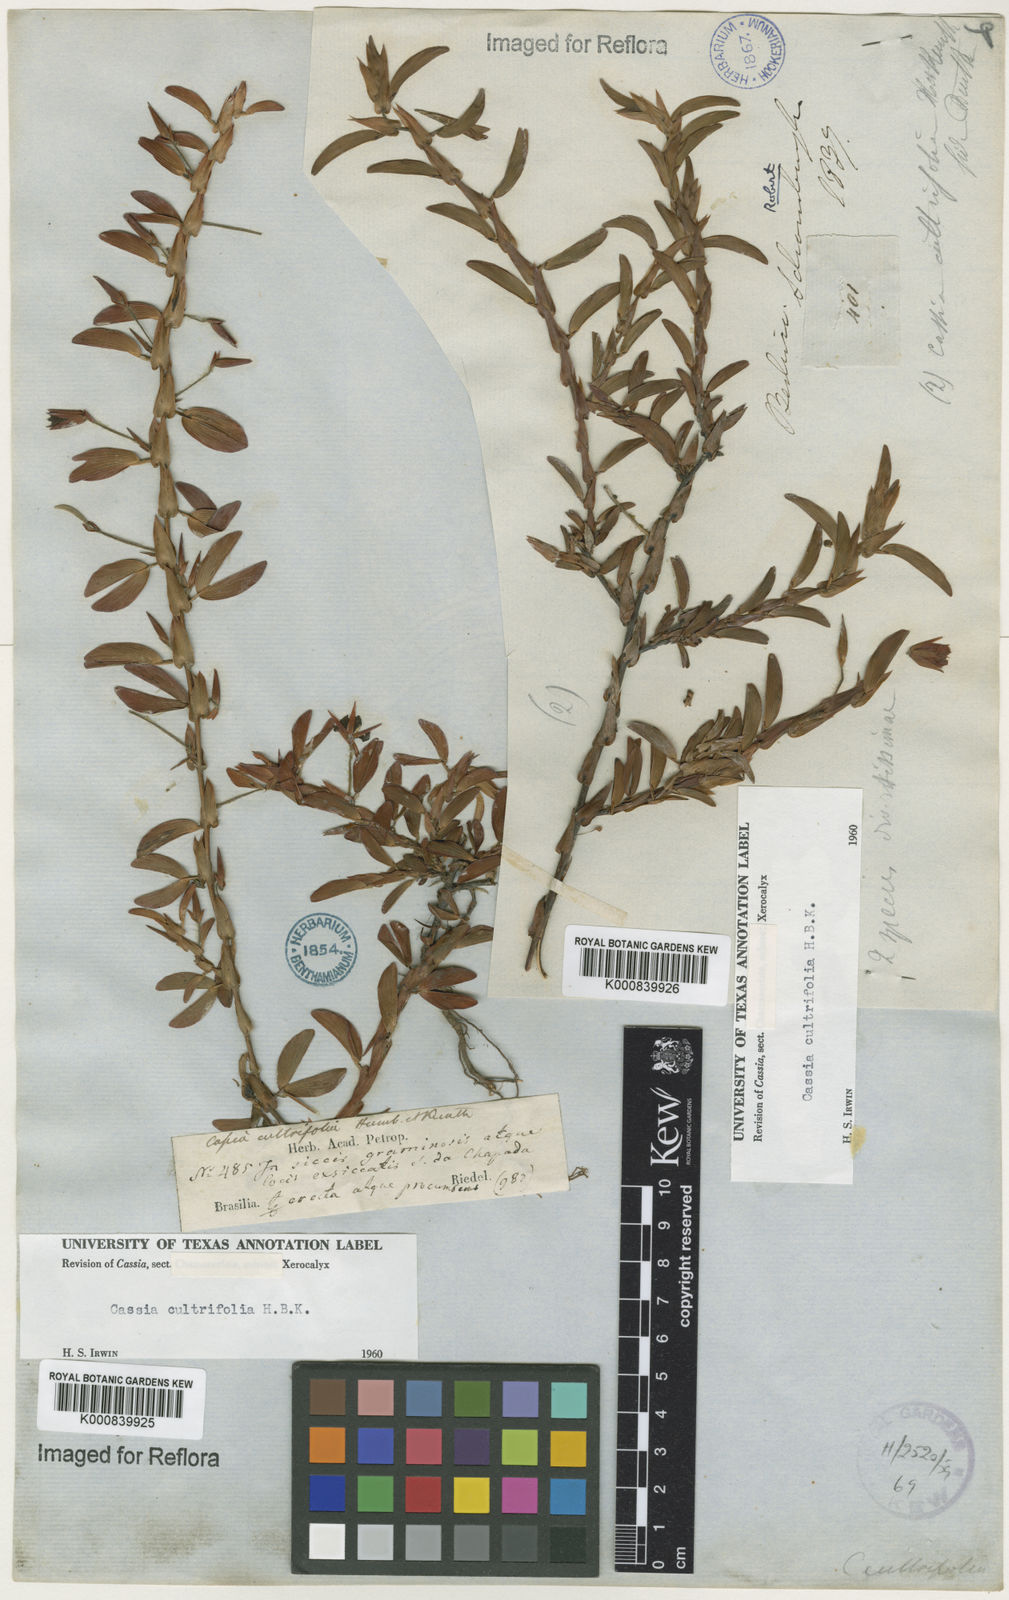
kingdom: Plantae
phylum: Tracheophyta
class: Magnoliopsida
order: Fabales
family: Fabaceae
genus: Chamaecrista
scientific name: Chamaecrista diphylla
